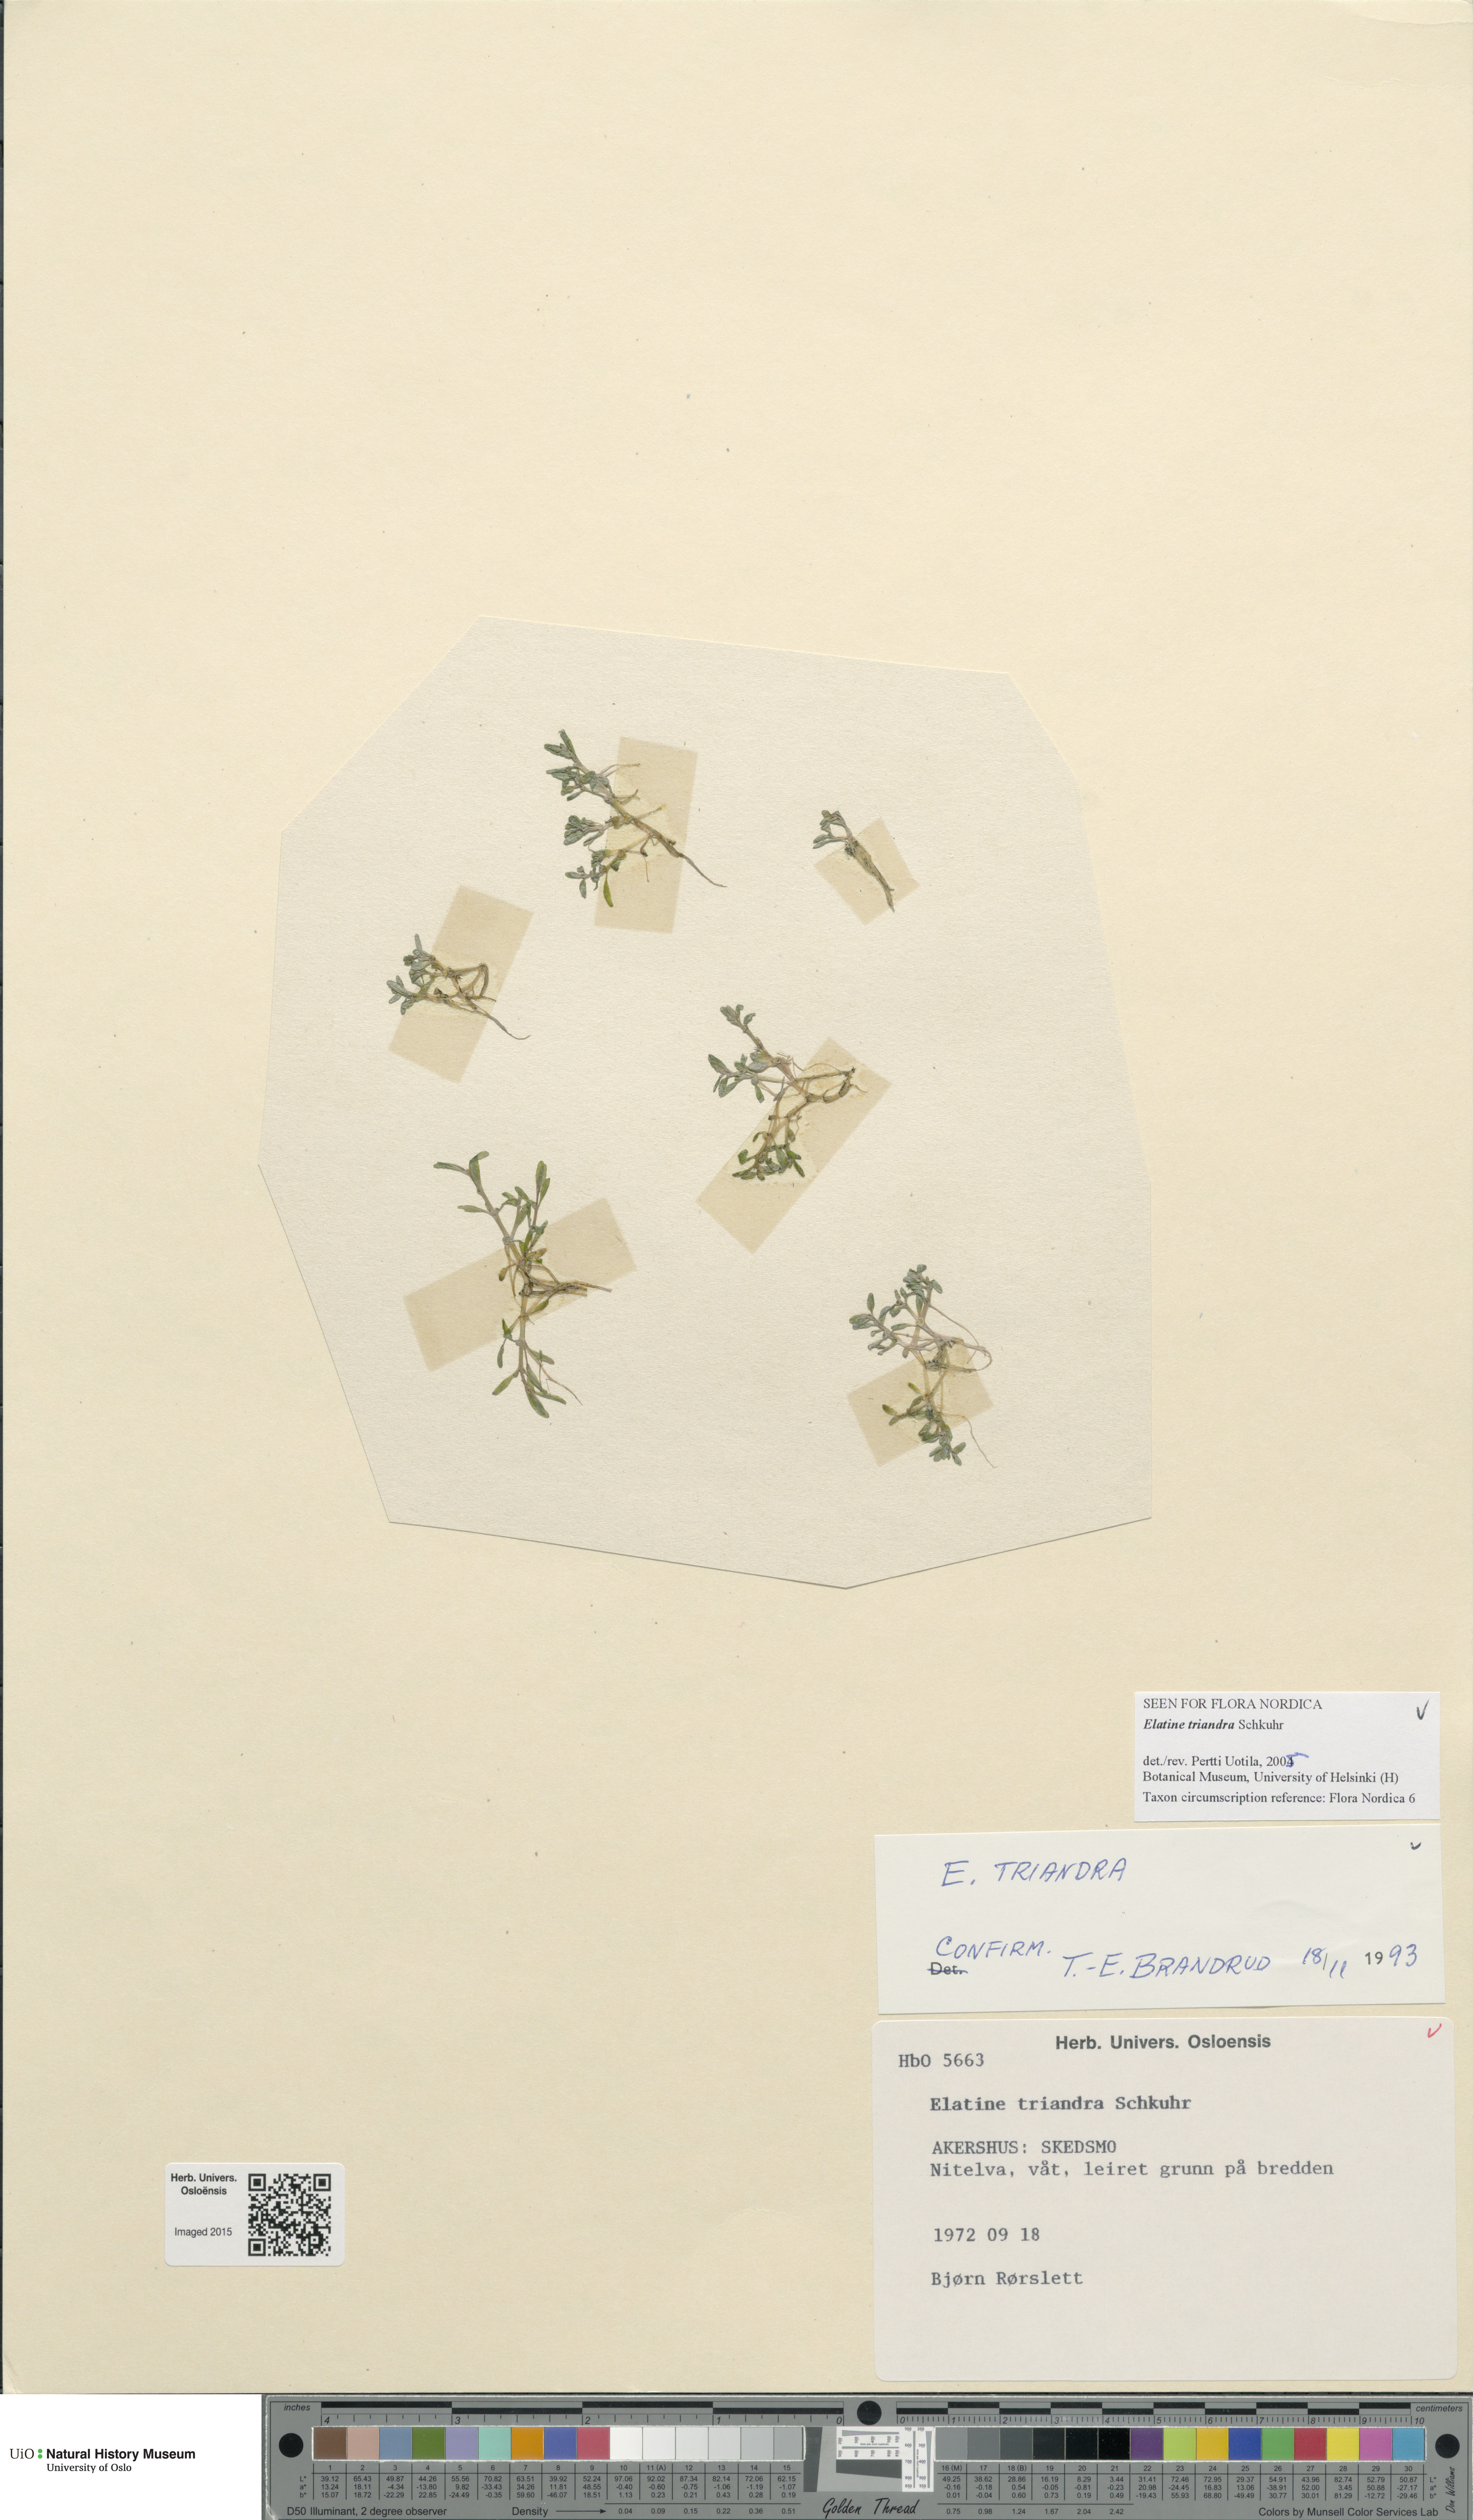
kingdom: Plantae
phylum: Tracheophyta
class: Magnoliopsida
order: Malpighiales
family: Elatinaceae
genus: Elatine
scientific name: Elatine triandra
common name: Three-stamened waterwort
